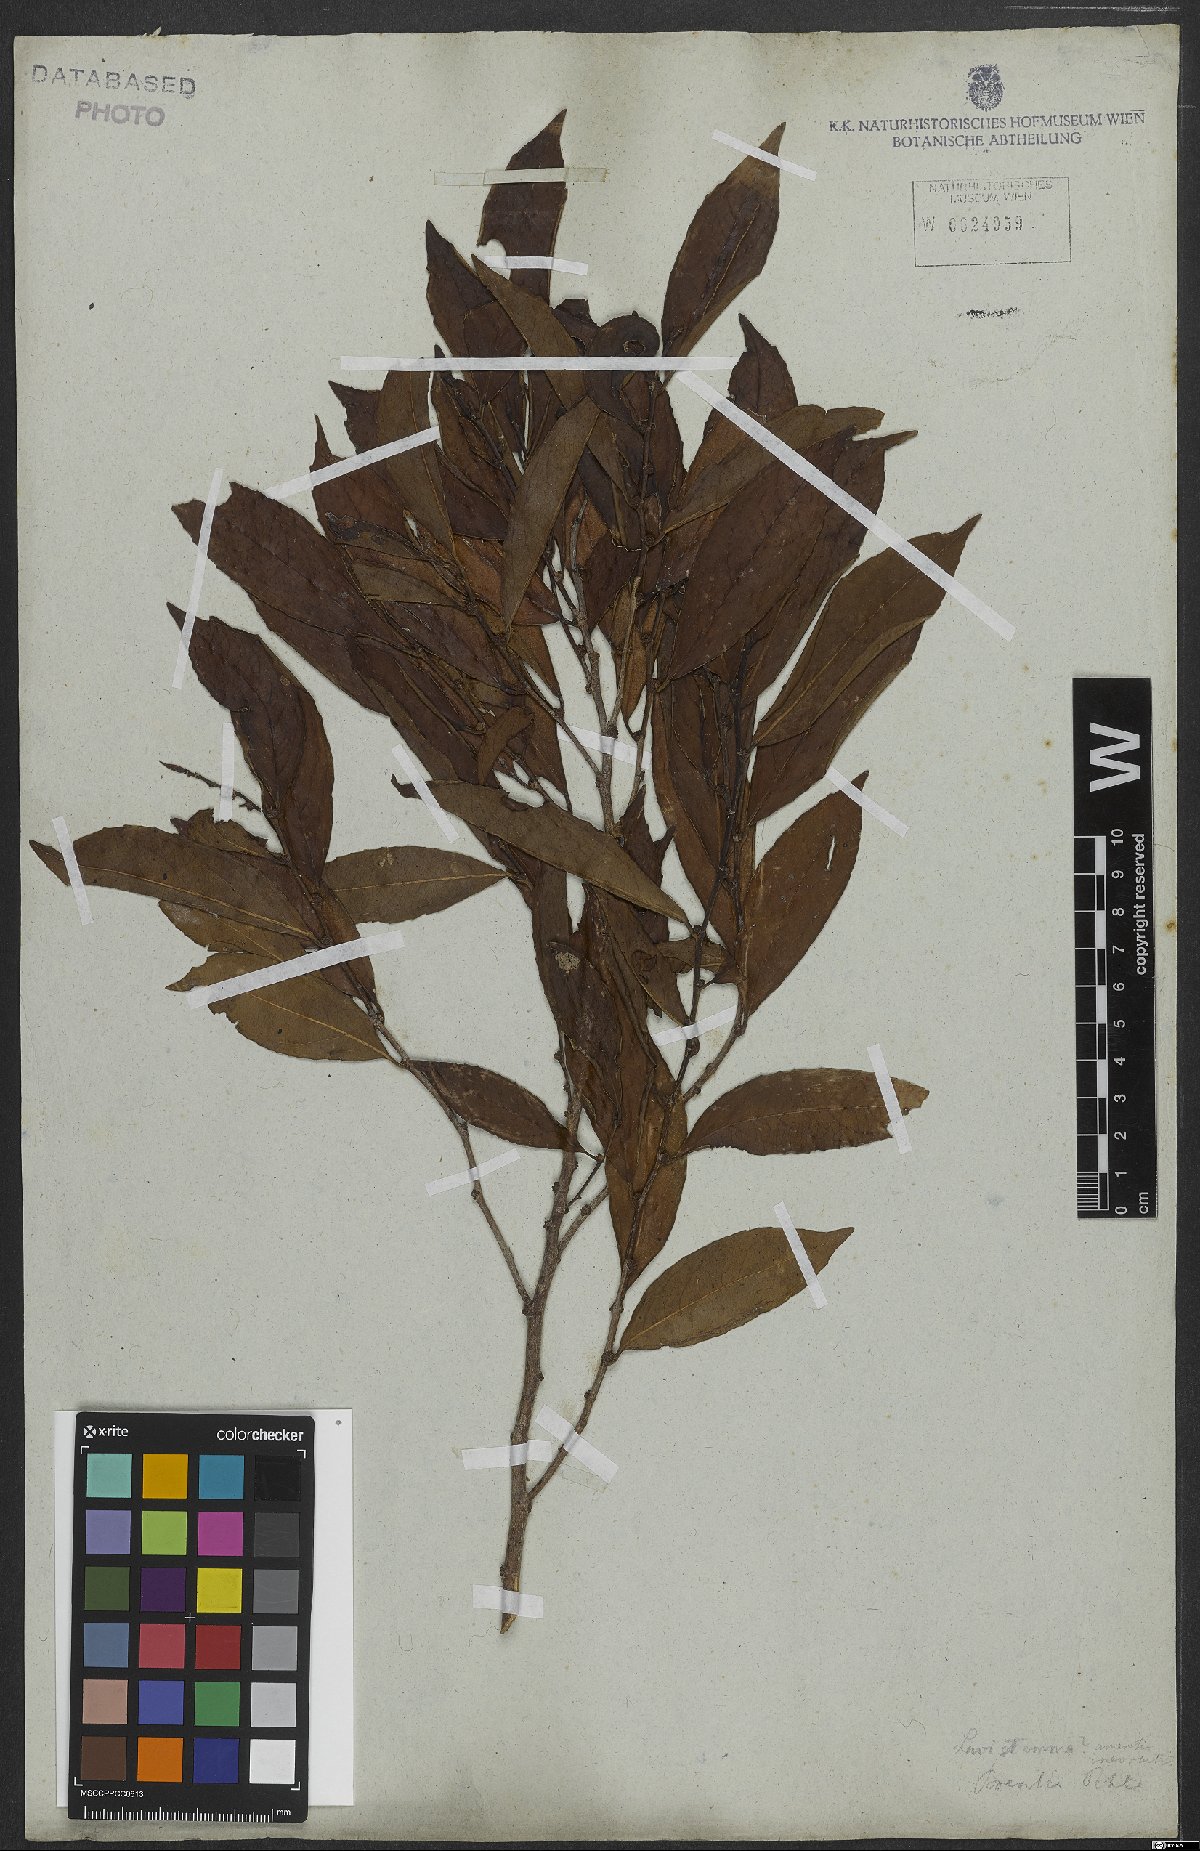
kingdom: Plantae
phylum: Tracheophyta
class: Magnoliopsida
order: Malpighiales
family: Lacistemataceae
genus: Lacistema
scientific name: Lacistema
